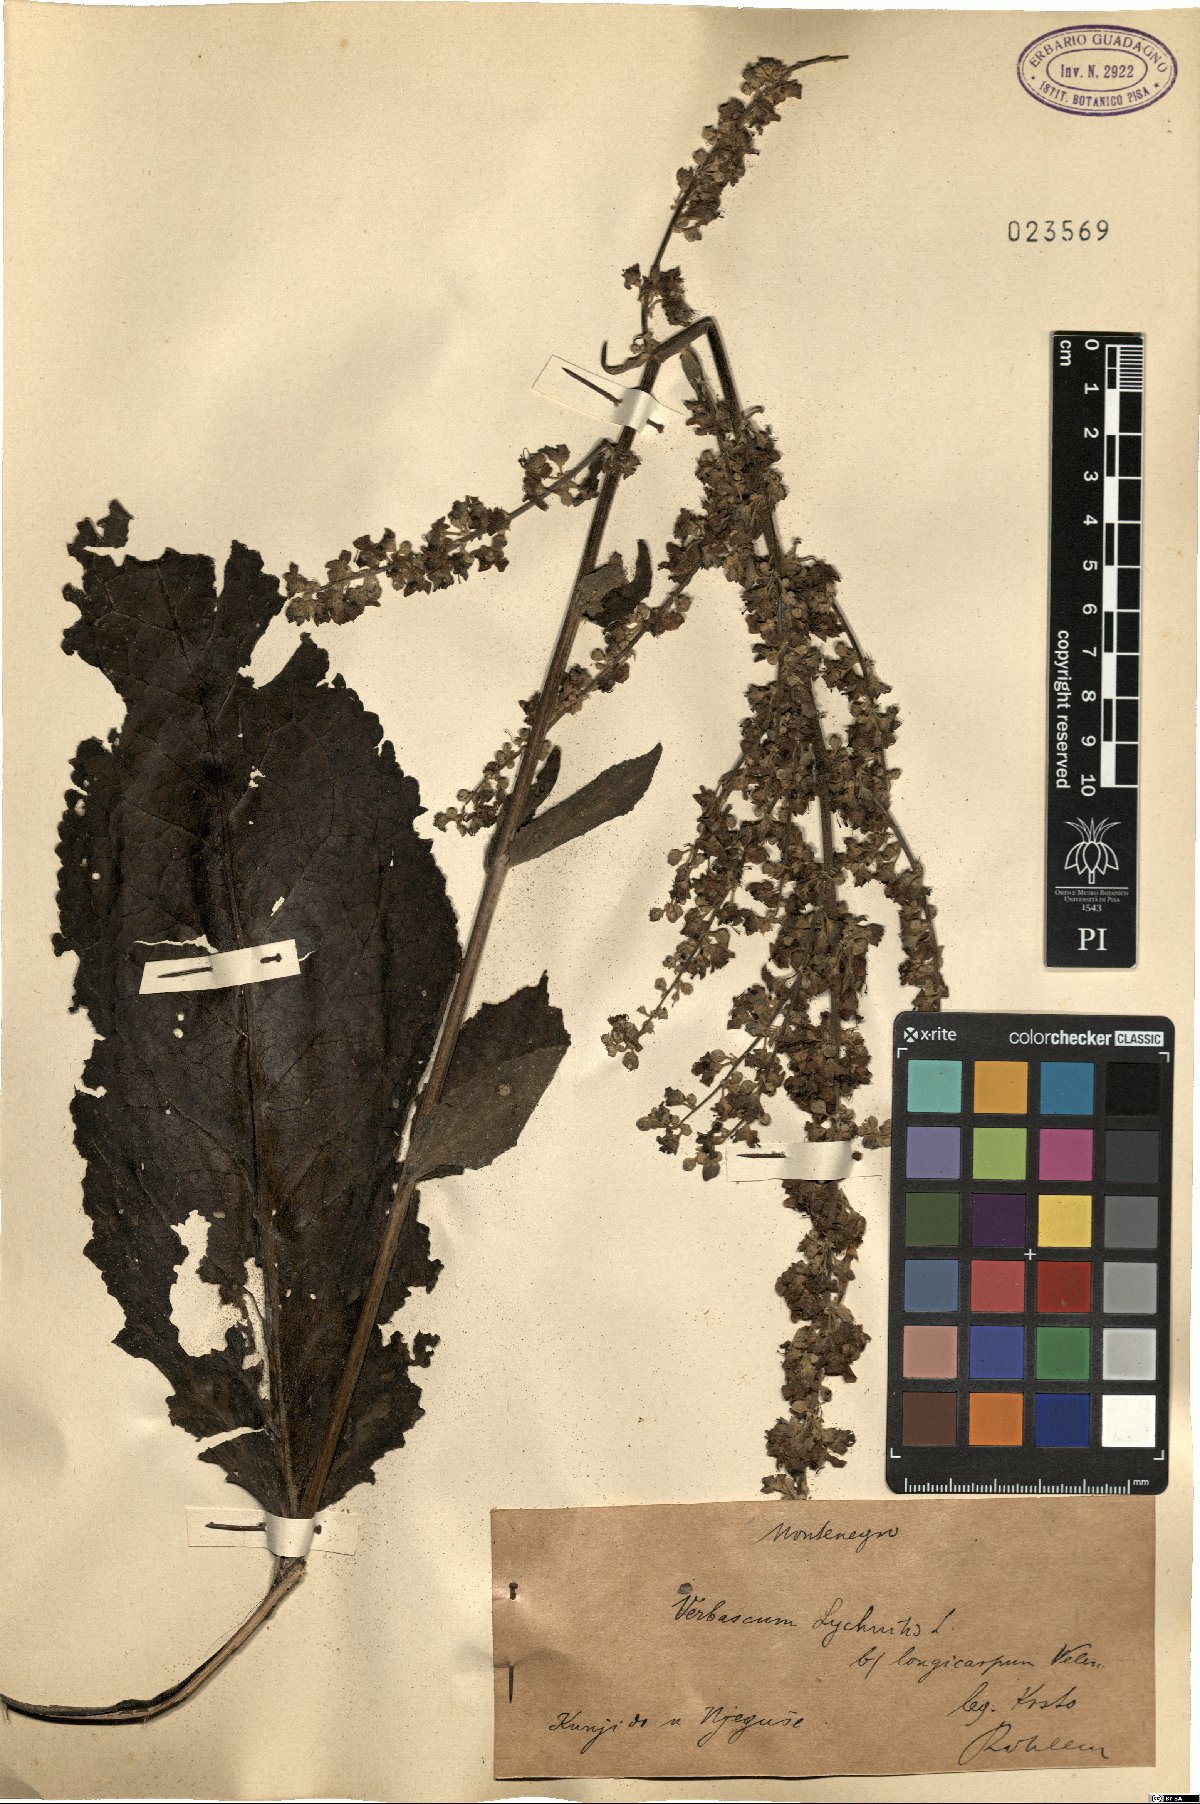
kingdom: Plantae
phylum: Tracheophyta
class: Magnoliopsida
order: Lamiales
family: Scrophulariaceae
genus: Verbascum
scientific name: Verbascum lychnitis
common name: White mullein
